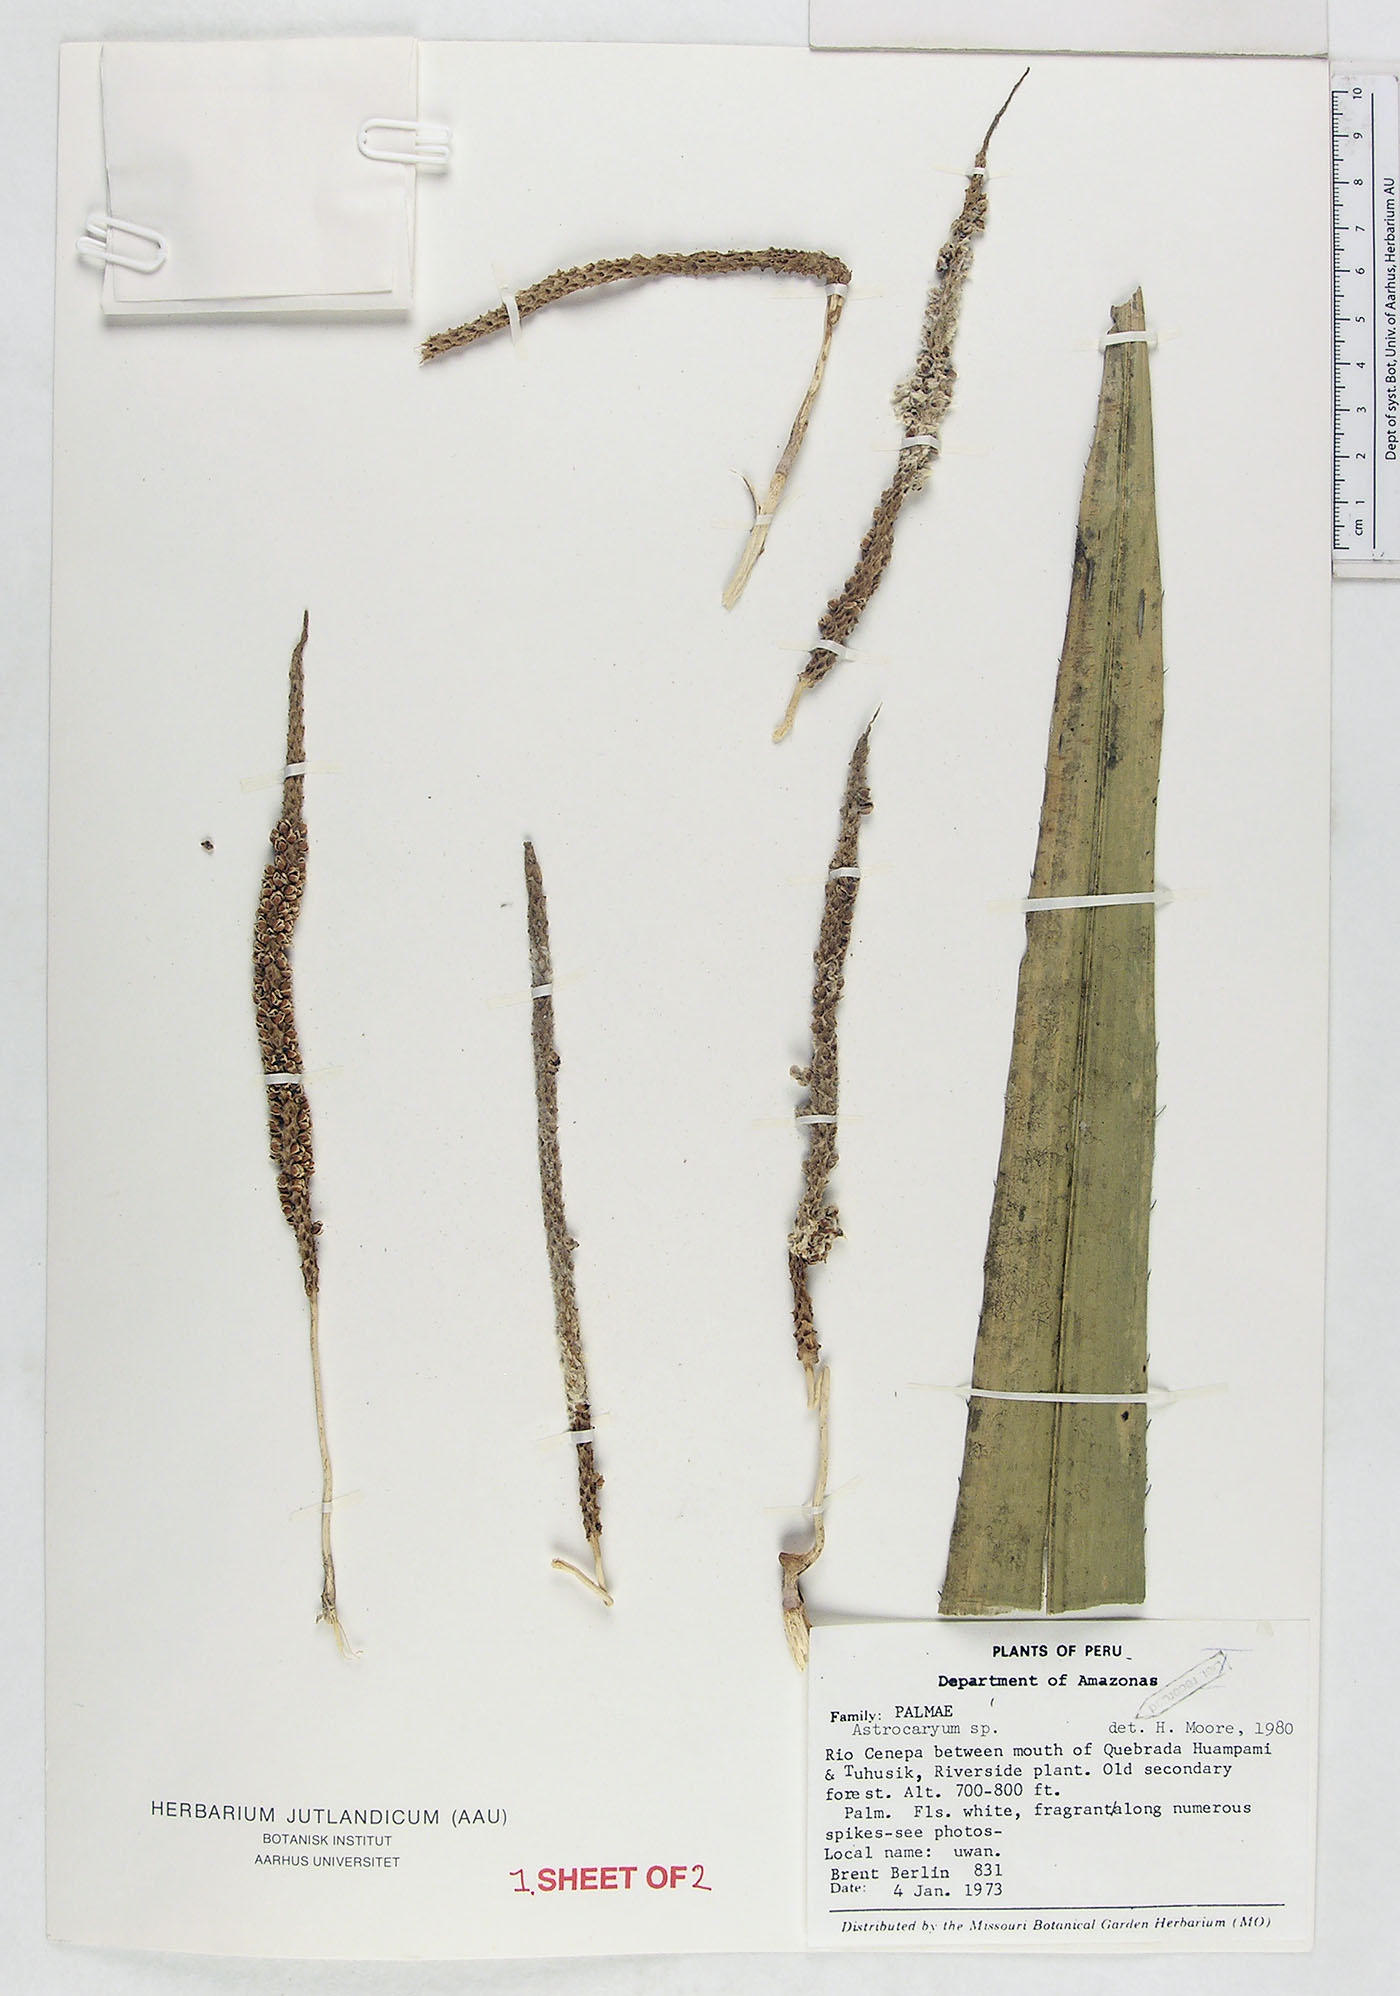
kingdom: Plantae
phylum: Tracheophyta
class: Liliopsida
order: Arecales
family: Arecaceae
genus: Astrocaryum
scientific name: Astrocaryum
